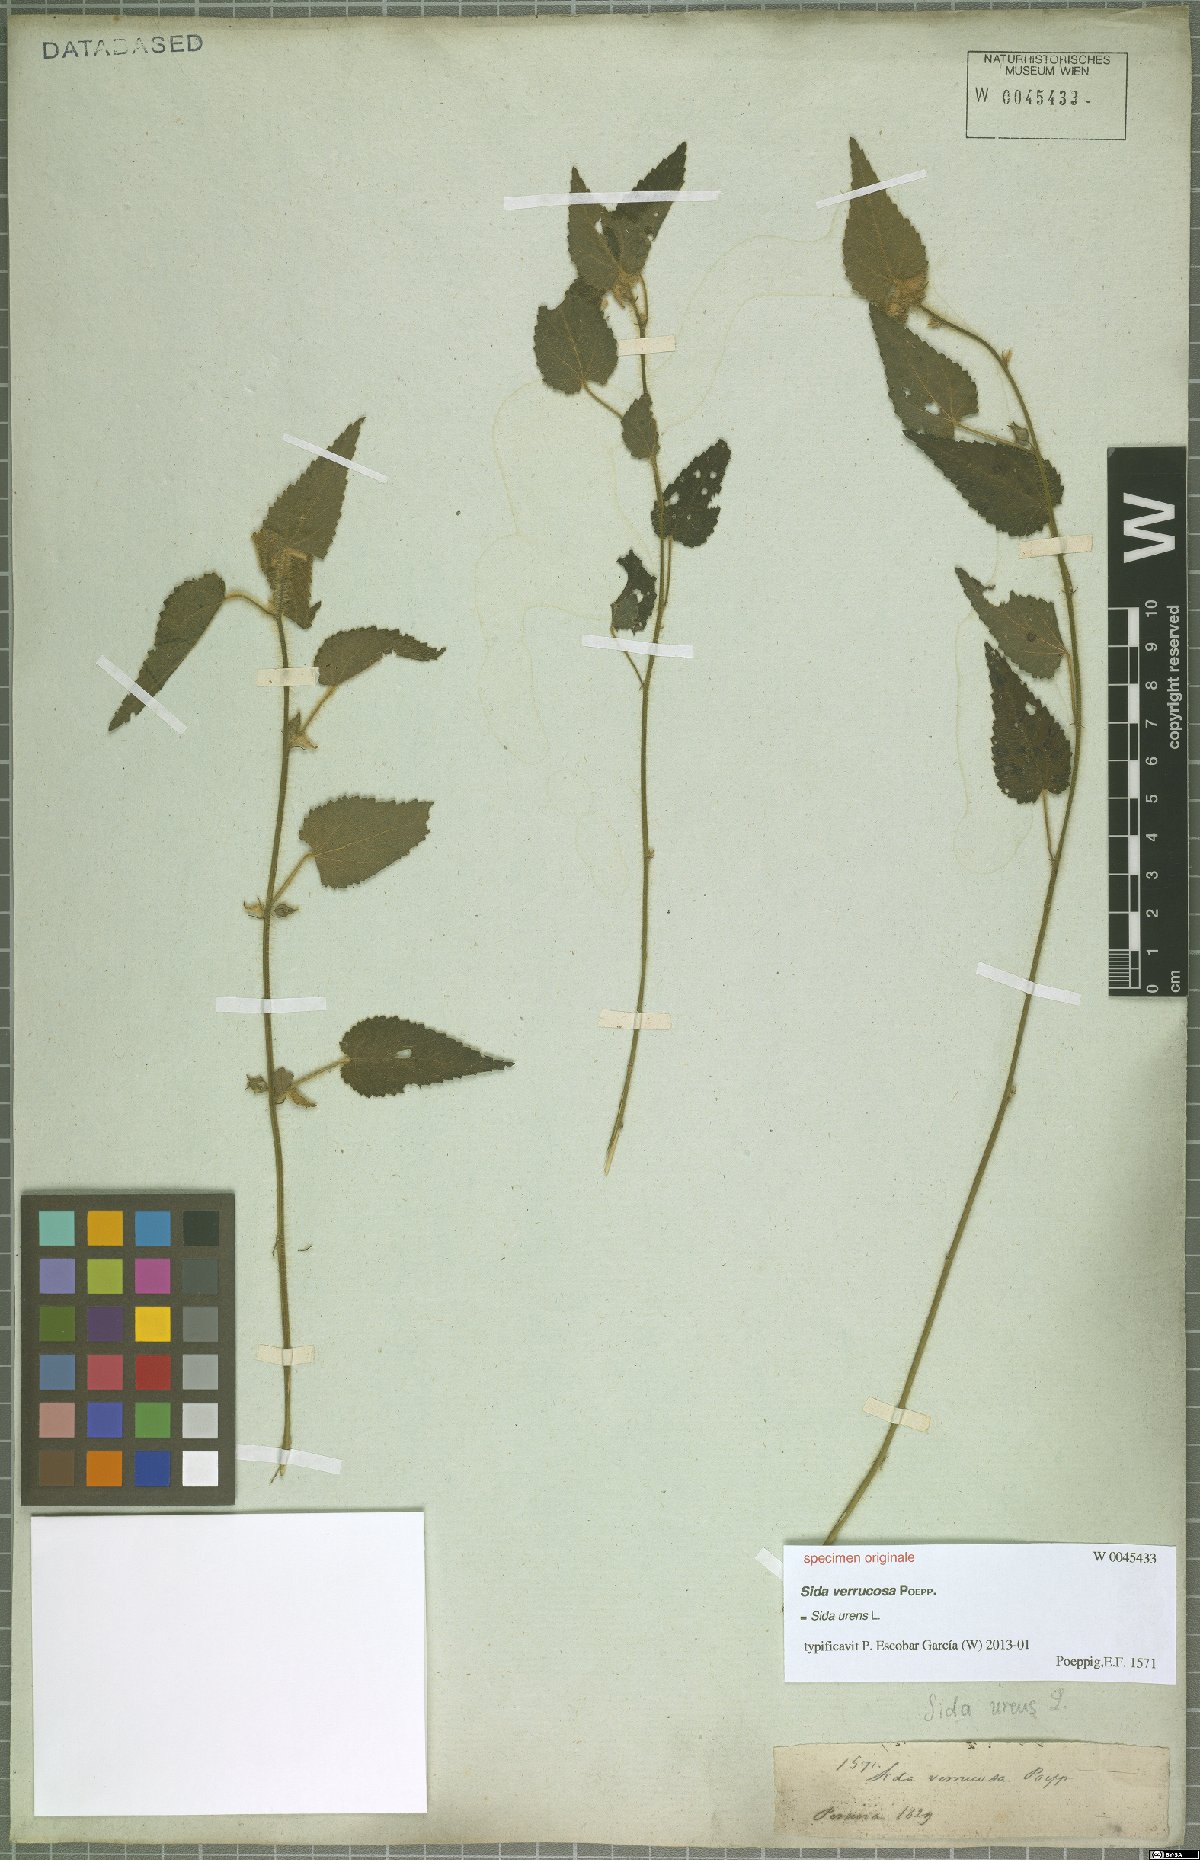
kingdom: Plantae
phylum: Tracheophyta
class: Magnoliopsida
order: Malvales
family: Malvaceae
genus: Sida
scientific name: Sida urens
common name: Tropical fanpetals
